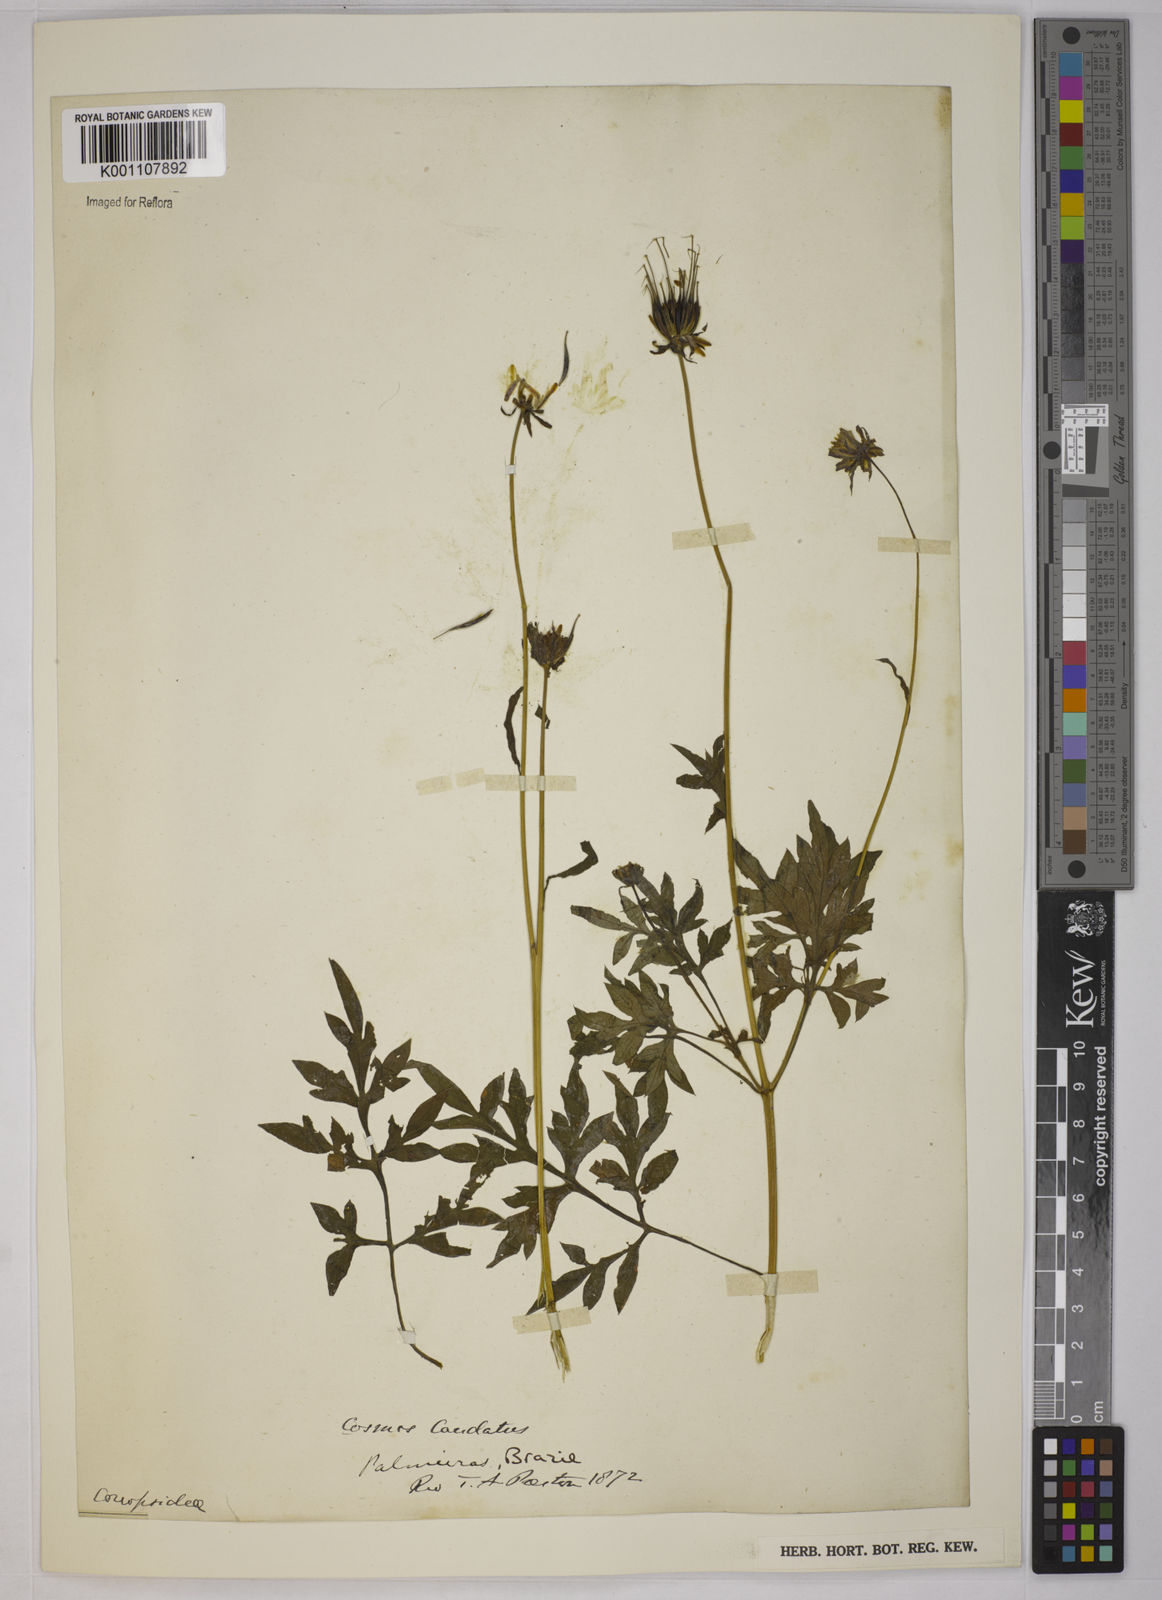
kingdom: Plantae
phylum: Tracheophyta
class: Magnoliopsida
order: Asterales
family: Asteraceae
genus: Cosmos
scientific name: Cosmos caudatus
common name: Wild cosmos
